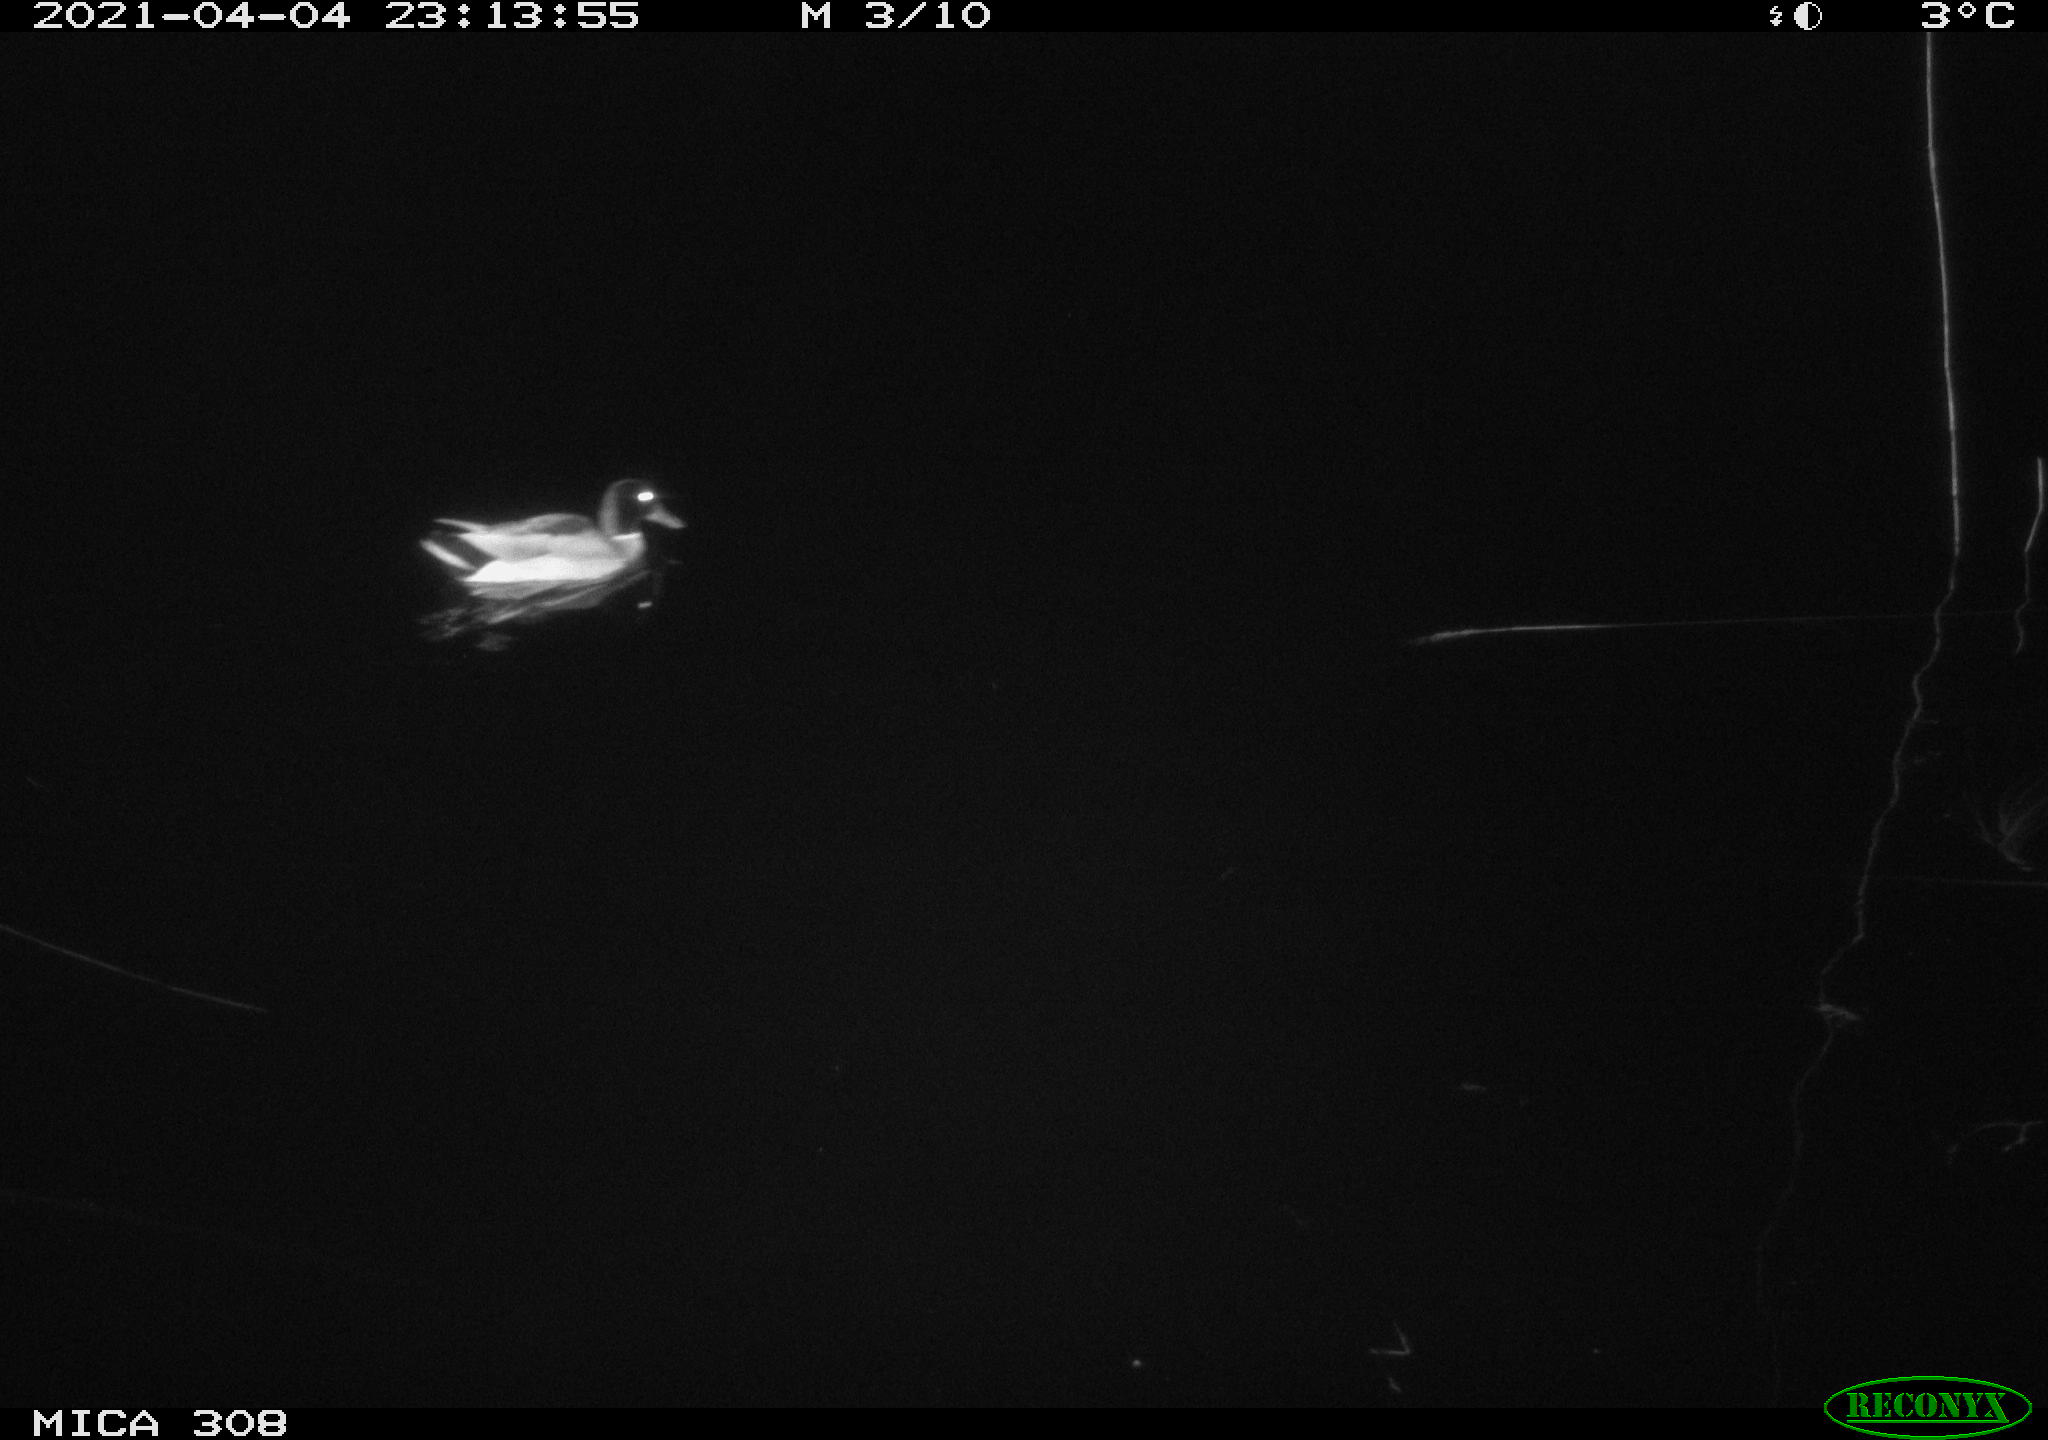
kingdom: Animalia
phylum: Chordata
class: Aves
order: Anseriformes
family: Anatidae
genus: Anas
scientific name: Anas platyrhynchos
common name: Mallard
